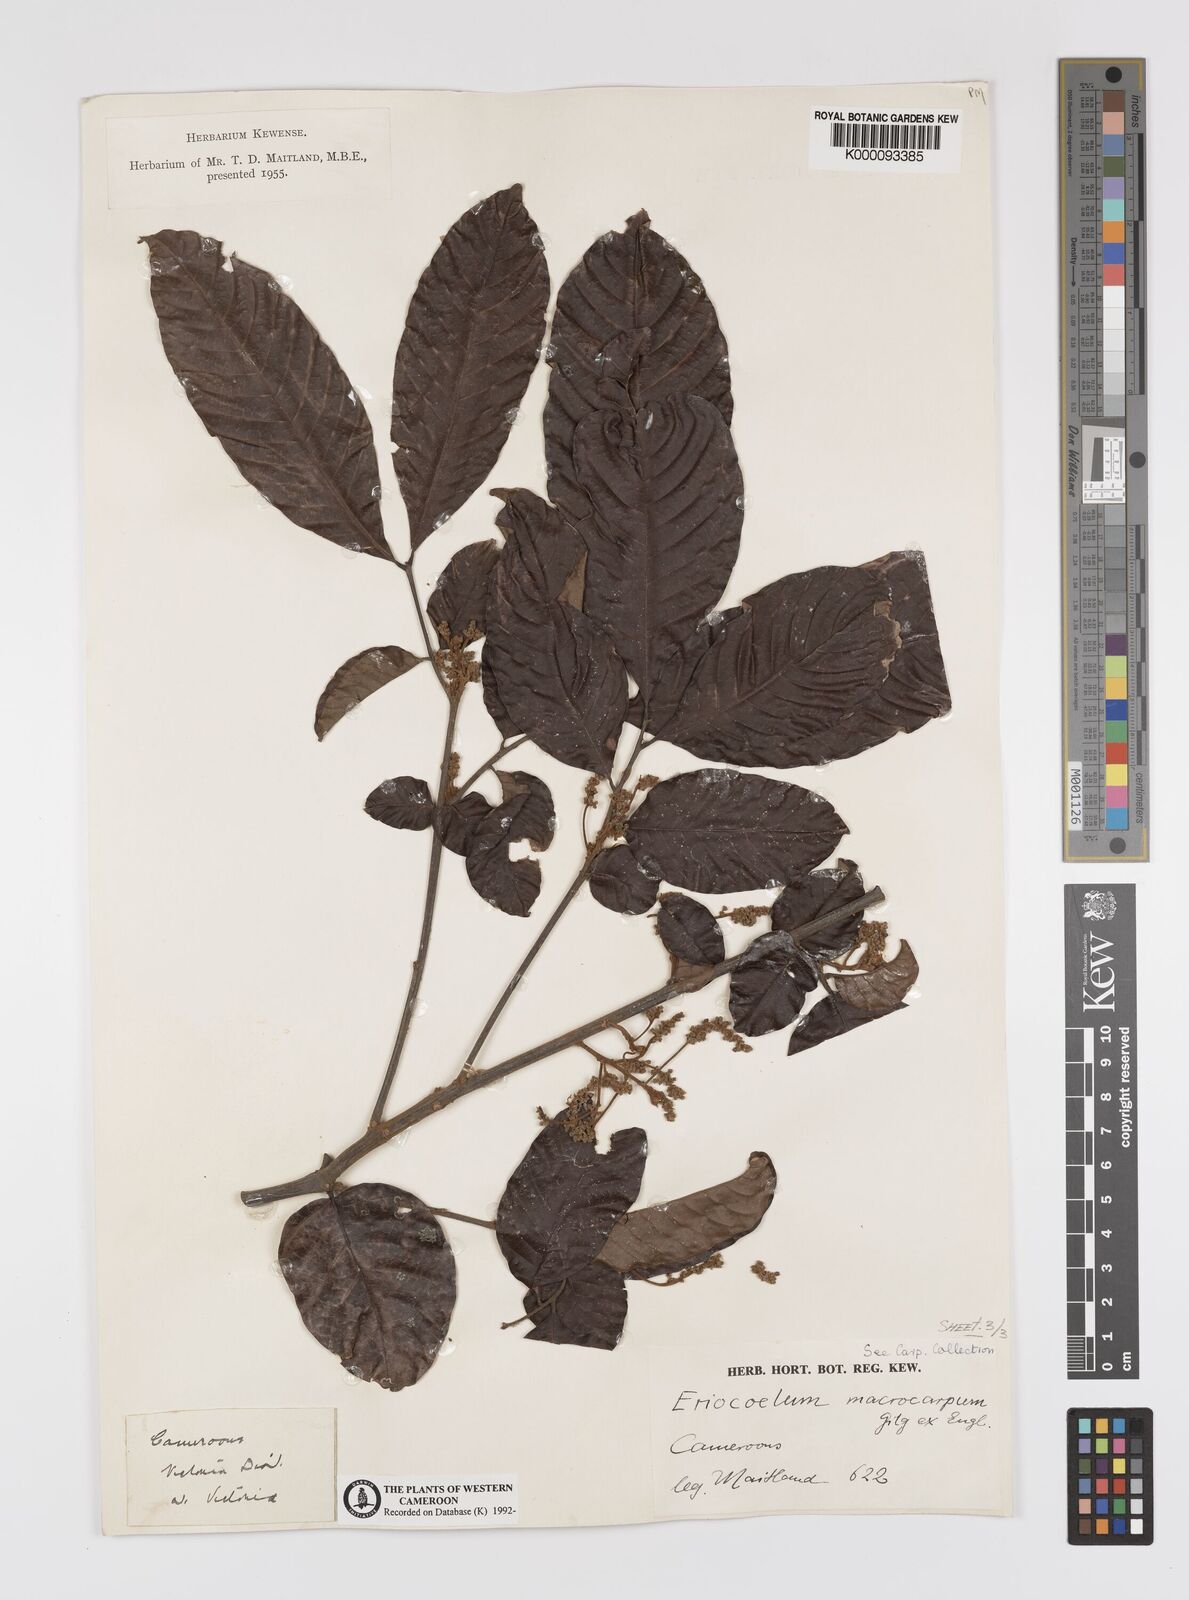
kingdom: Plantae
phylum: Tracheophyta
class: Magnoliopsida
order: Sapindales
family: Sapindaceae
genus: Eriocoelum
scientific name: Eriocoelum
